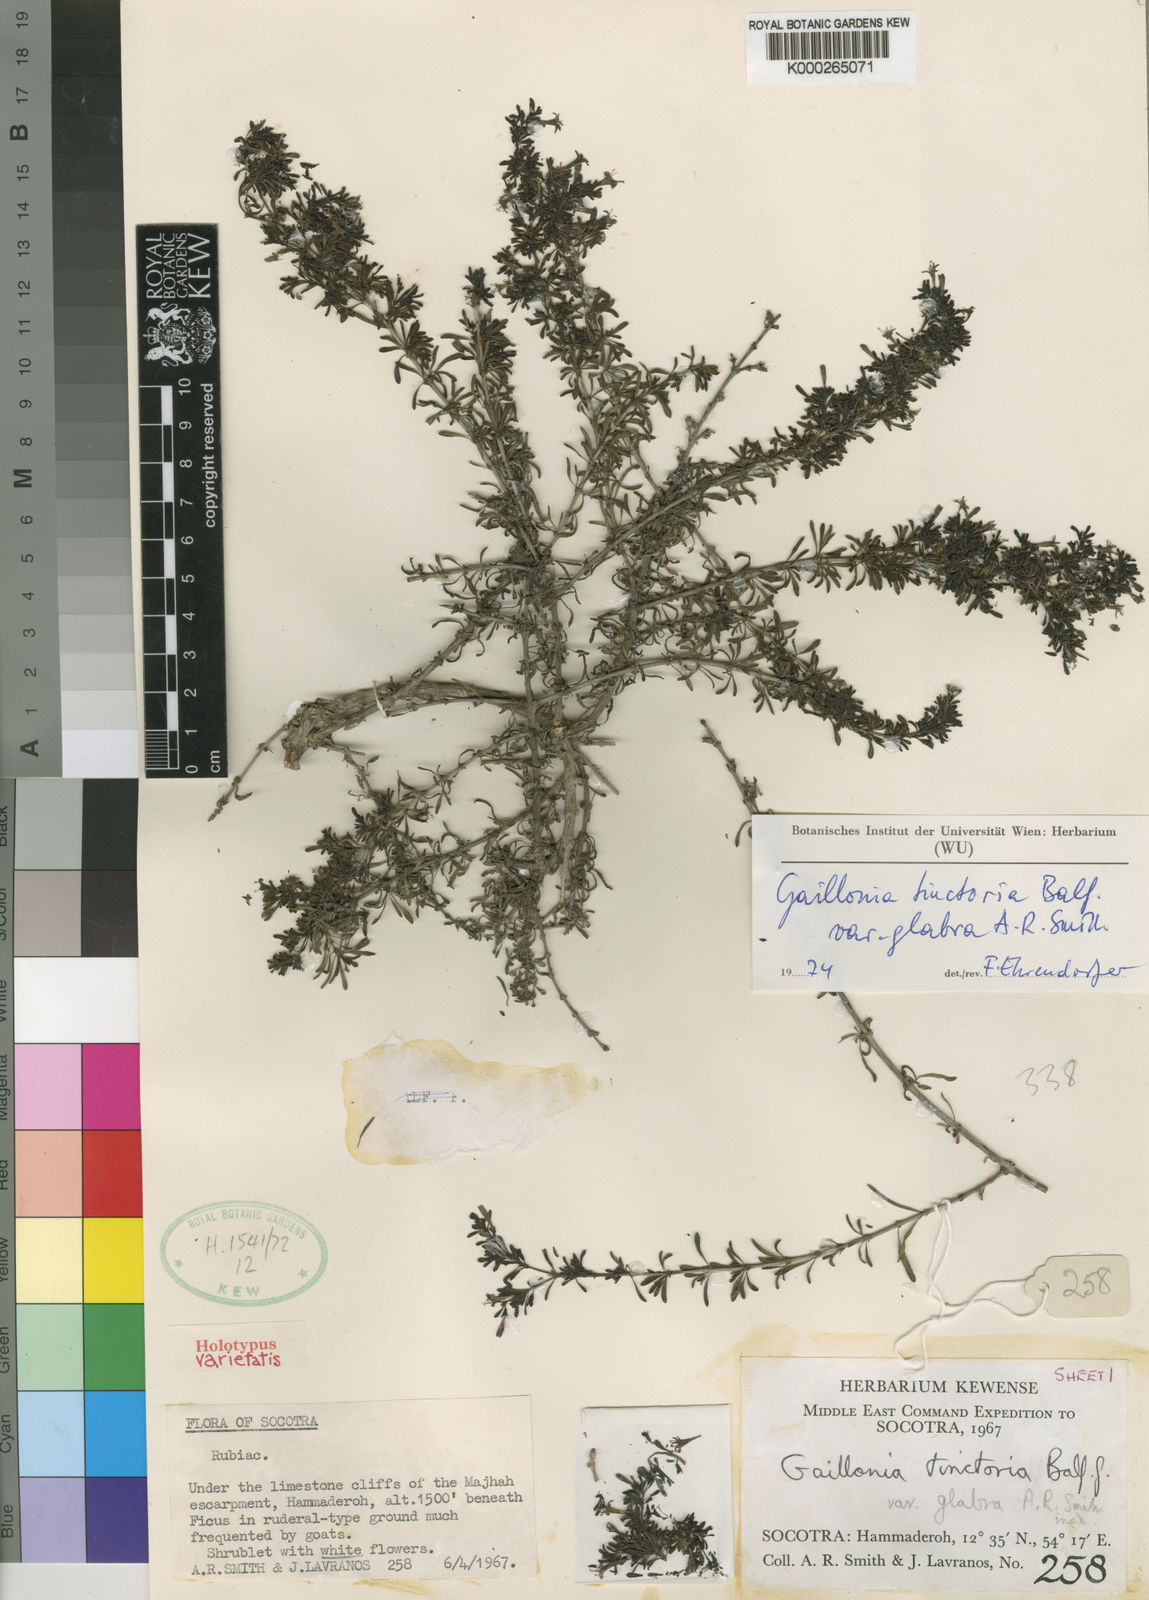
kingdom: Plantae
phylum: Tracheophyta
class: Magnoliopsida
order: Gentianales
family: Rubiaceae
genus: Plocama
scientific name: Plocama tinctoria
